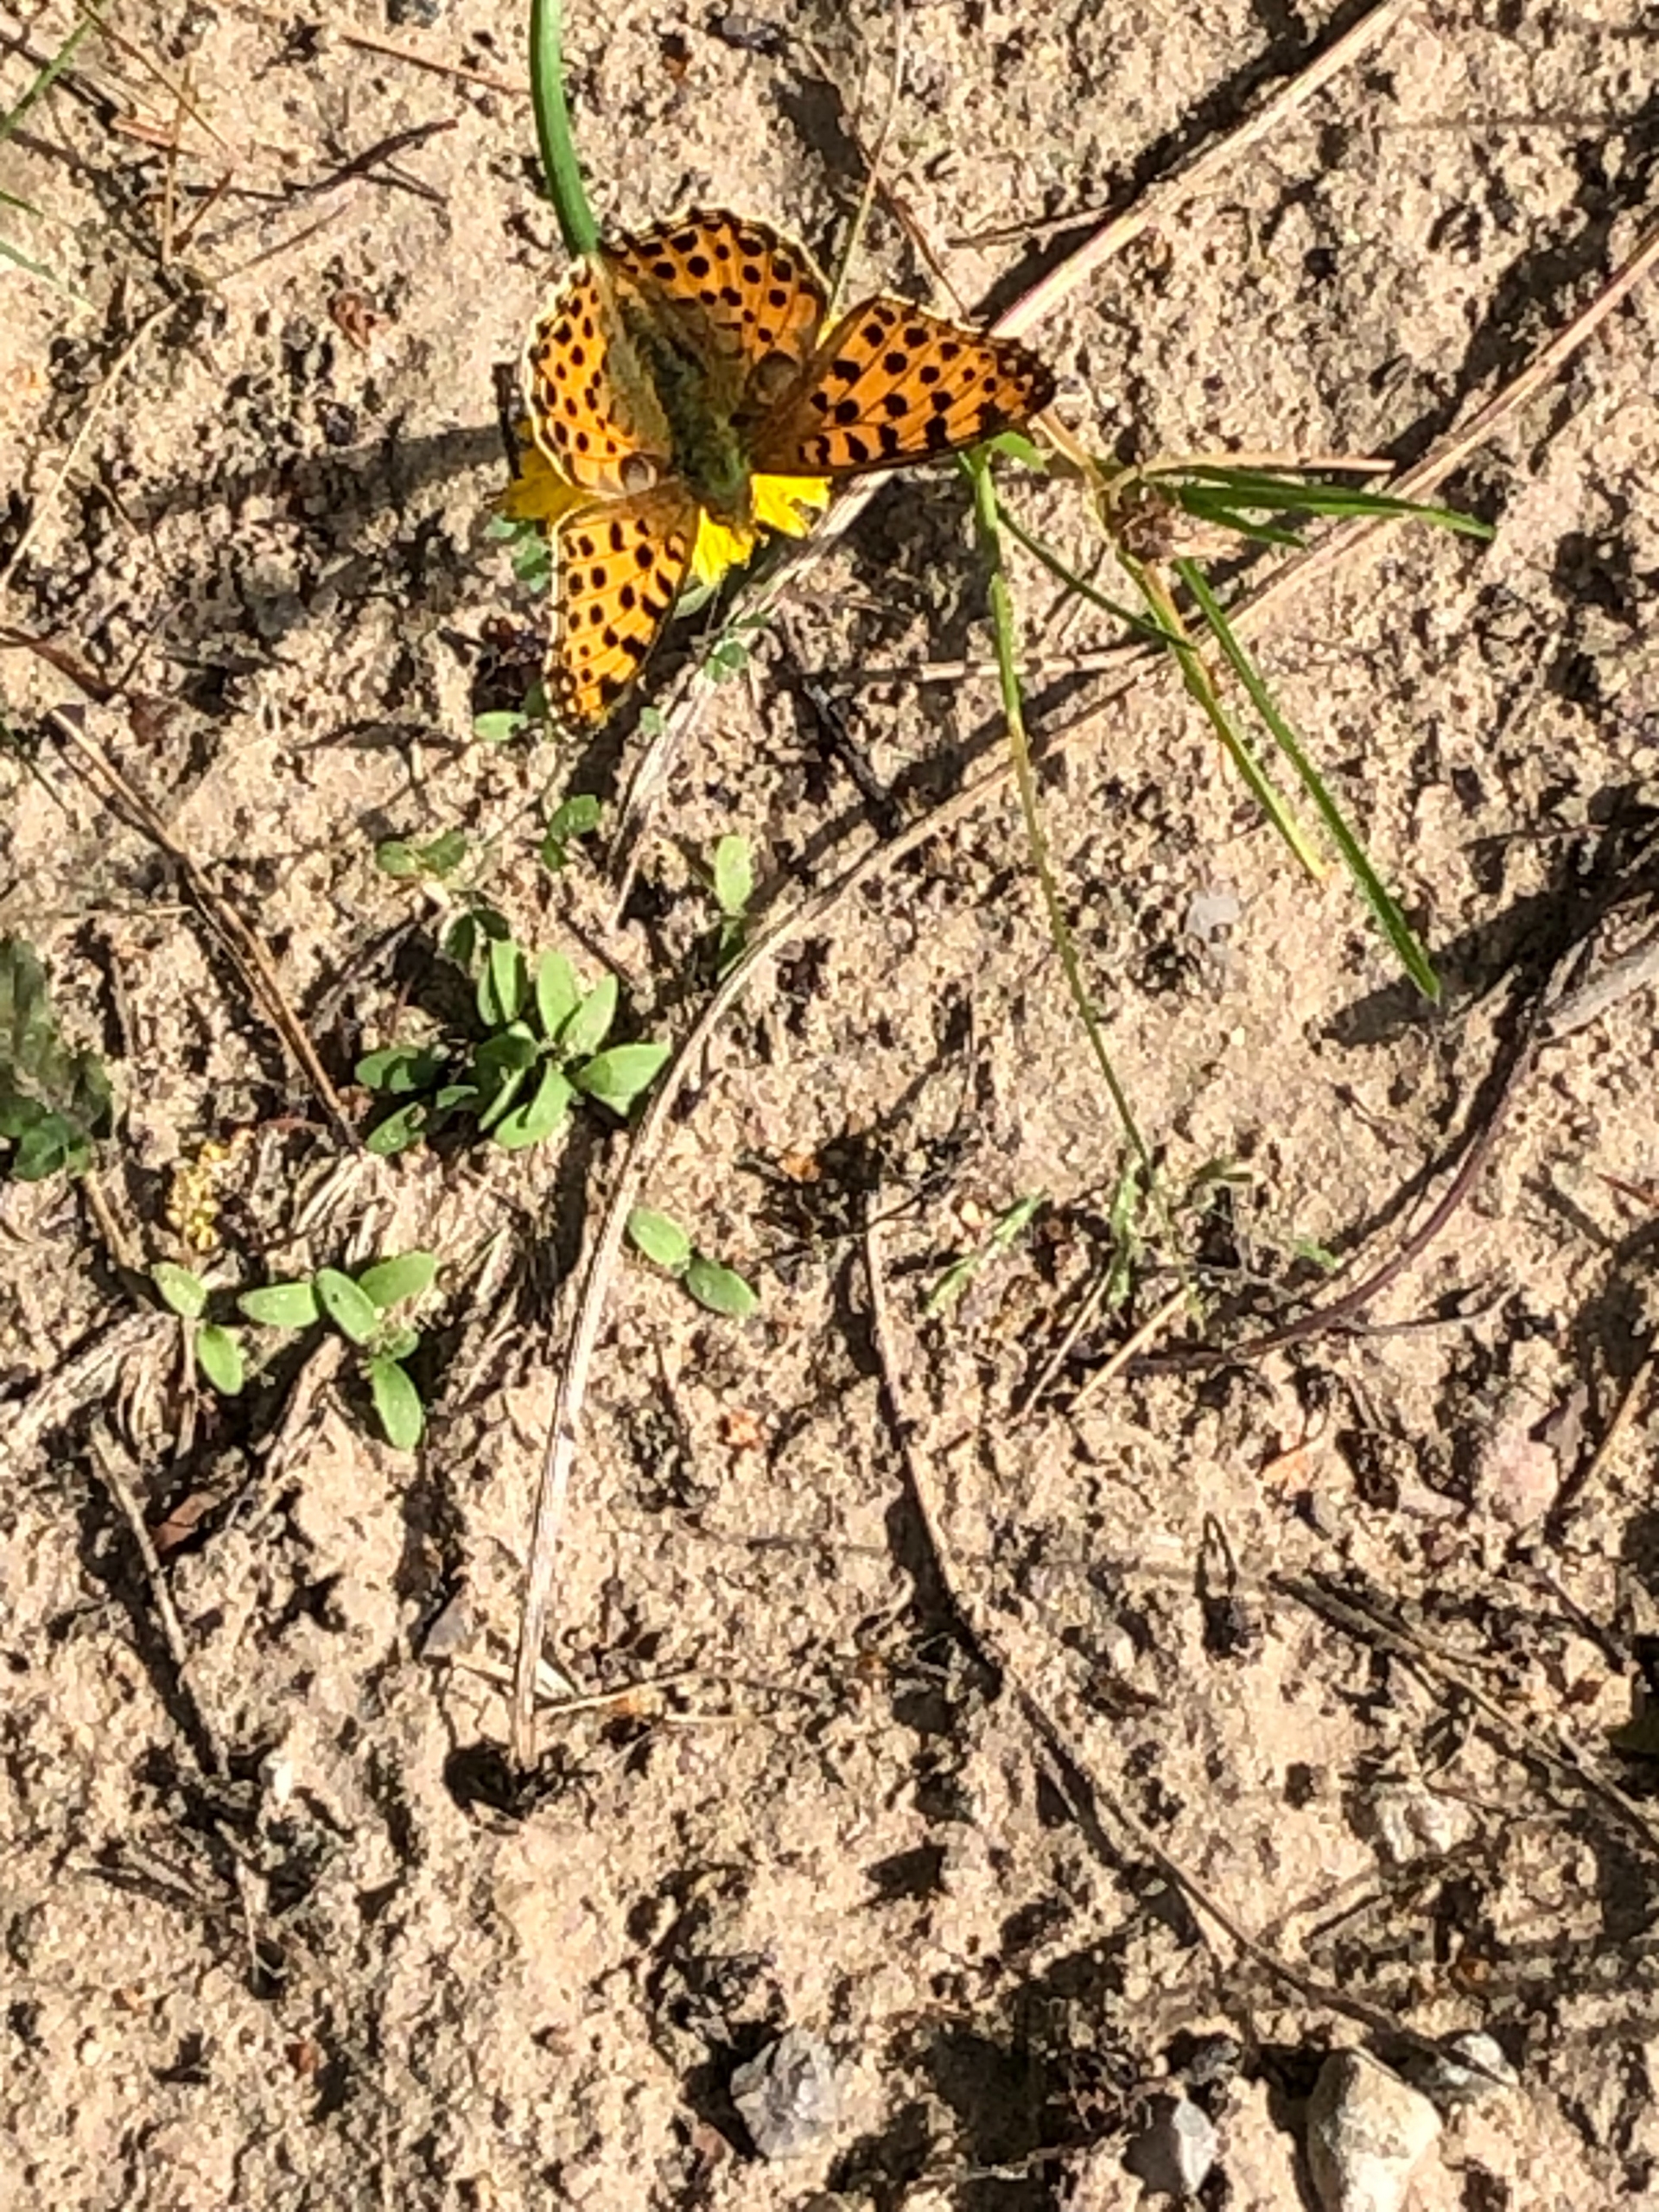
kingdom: Animalia
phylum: Arthropoda
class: Insecta
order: Lepidoptera
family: Nymphalidae
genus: Issoria
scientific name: Issoria lathonia
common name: Storplettet perlemorsommerfugl
